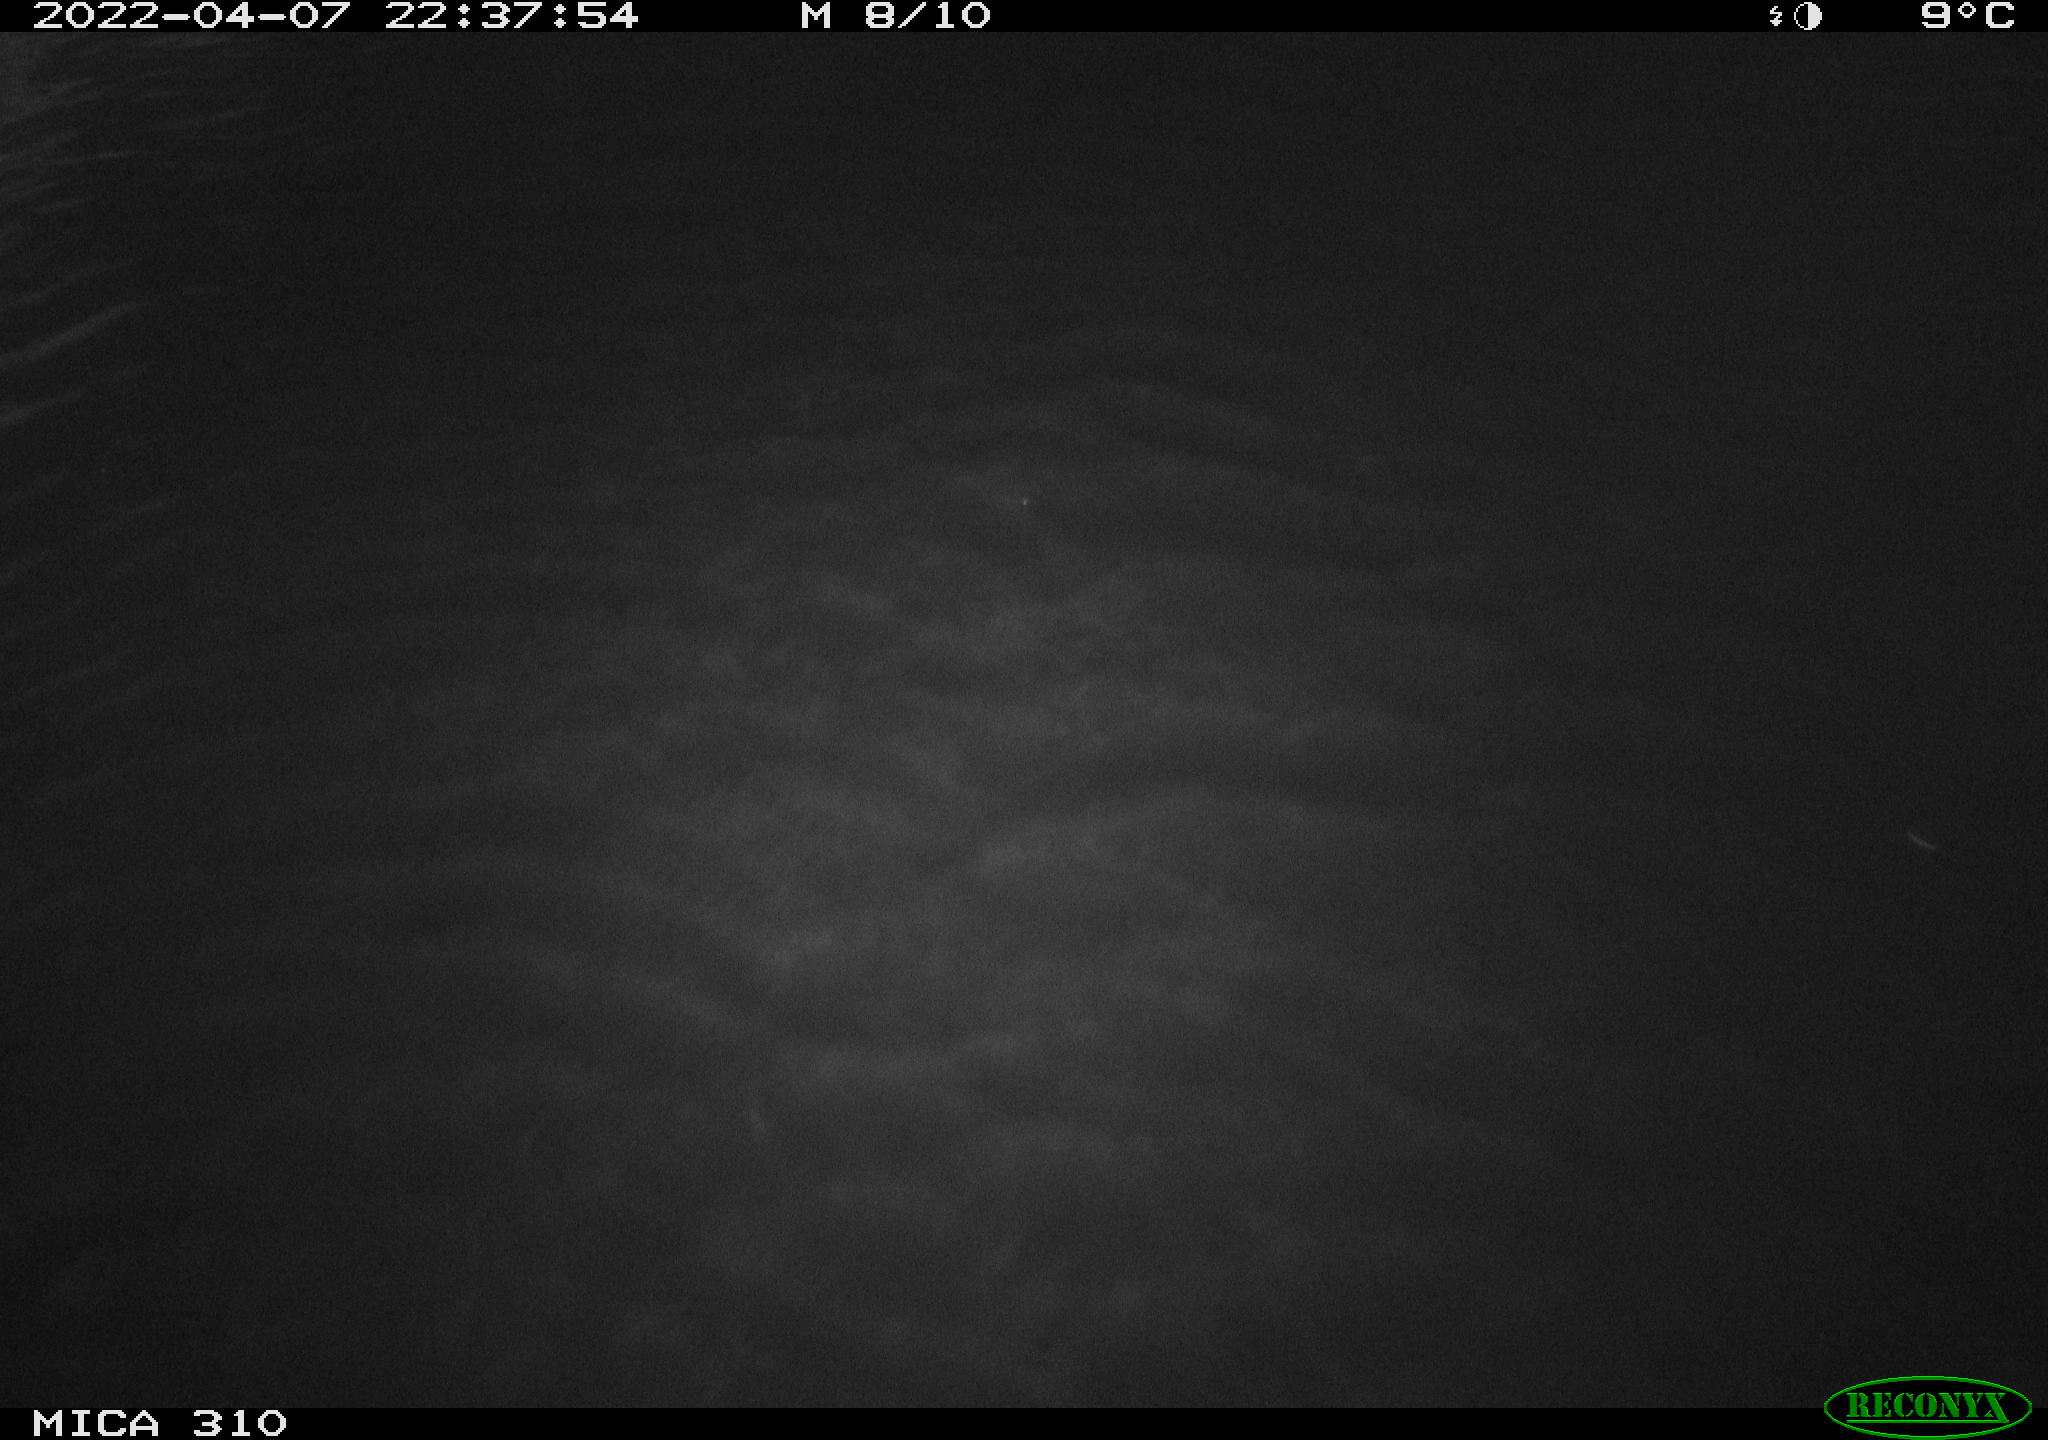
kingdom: Animalia
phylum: Chordata
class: Aves
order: Anseriformes
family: Anatidae
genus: Anas
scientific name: Anas platyrhynchos
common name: Mallard
